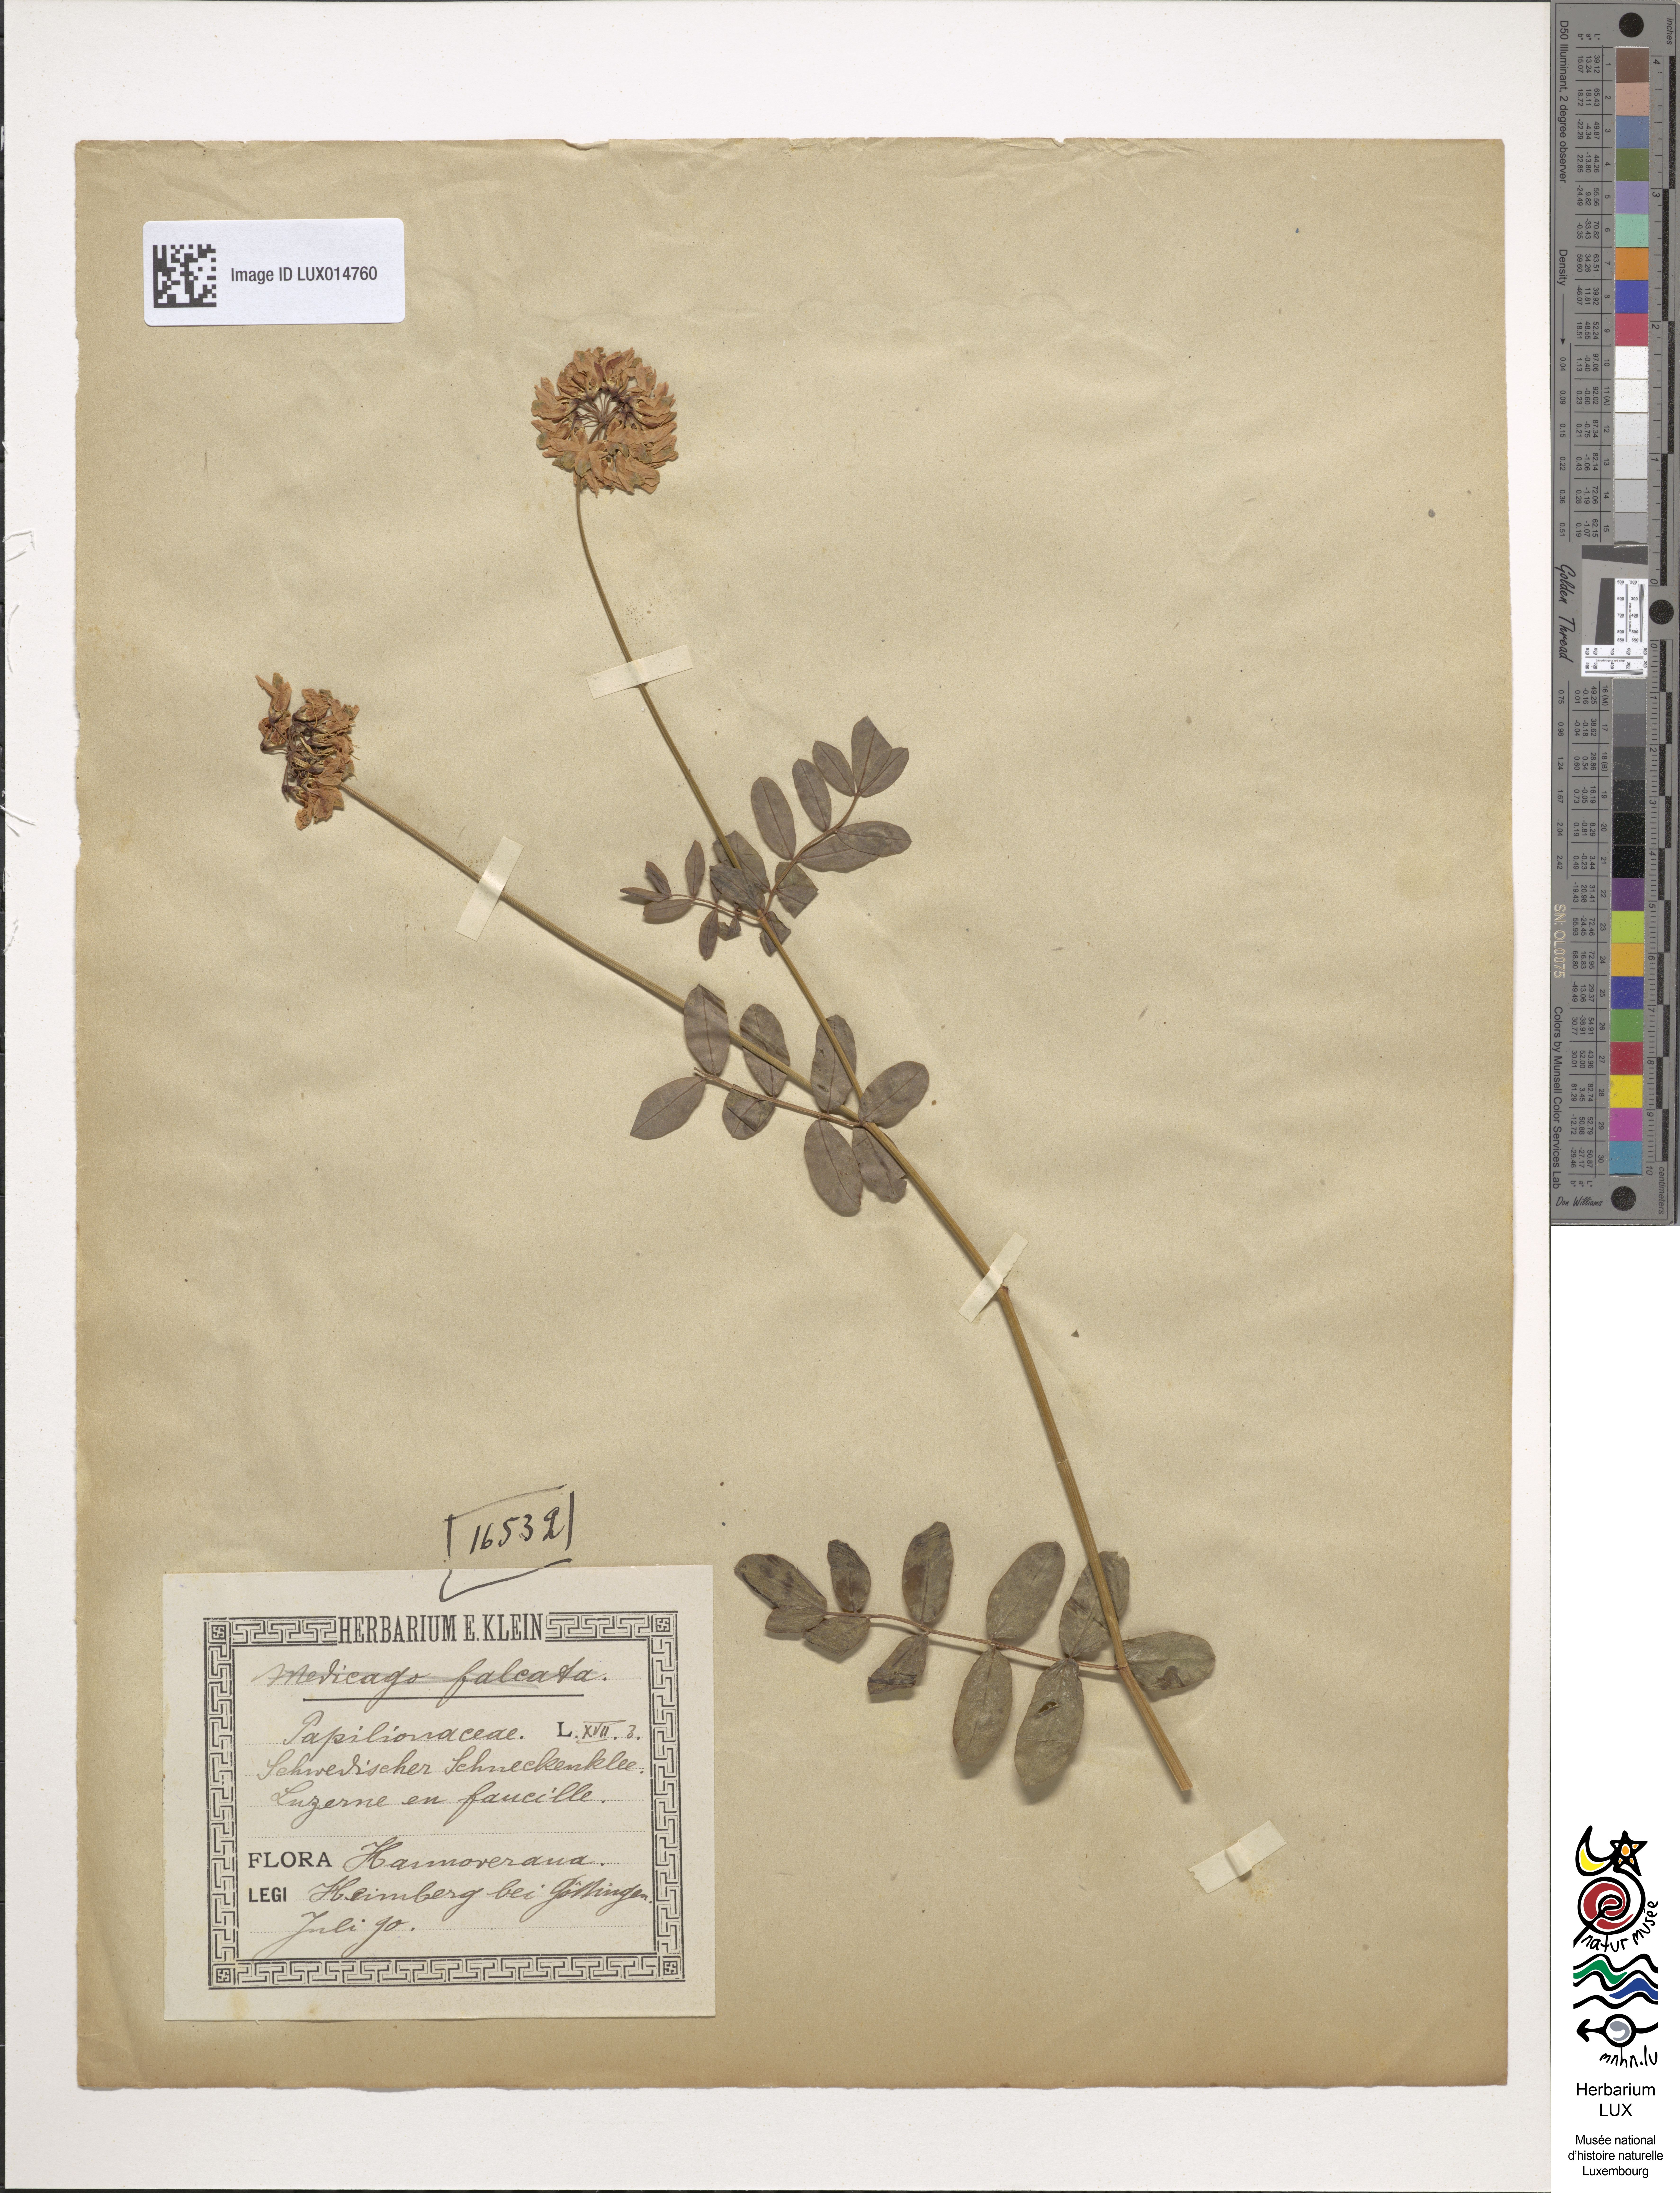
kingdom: Plantae
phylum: Tracheophyta
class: Magnoliopsida
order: Fabales
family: Fabaceae
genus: Medicago
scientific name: Medicago falcata
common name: Sickle medick
